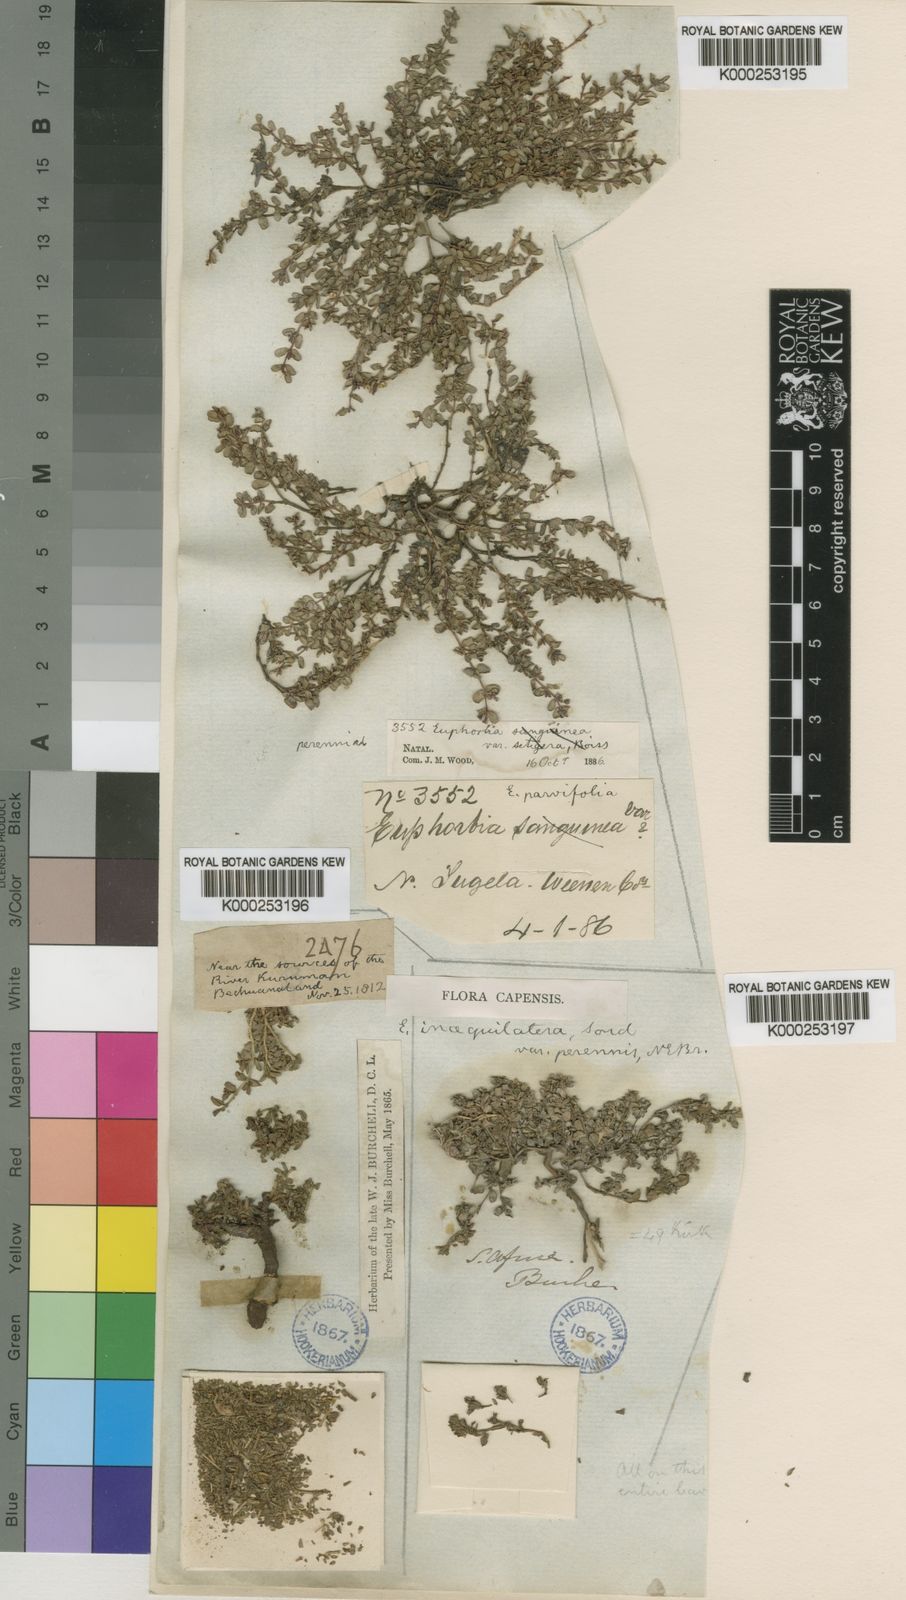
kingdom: Plantae
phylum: Tracheophyta
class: Magnoliopsida
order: Malpighiales
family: Euphorbiaceae
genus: Euphorbia
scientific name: Euphorbia inaequilatera
